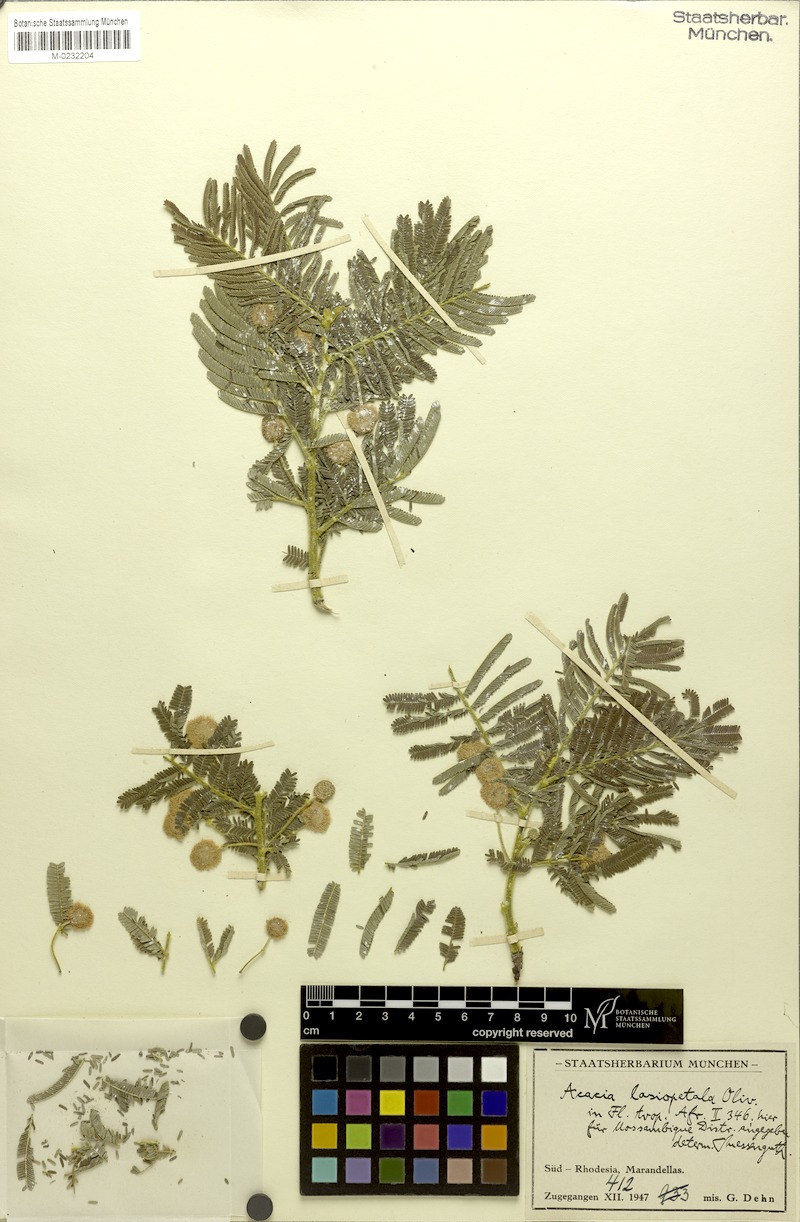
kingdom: Plantae
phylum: Tracheophyta
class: Magnoliopsida
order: Fabales
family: Fabaceae
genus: Vachellia
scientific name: Vachellia lasiopetala
